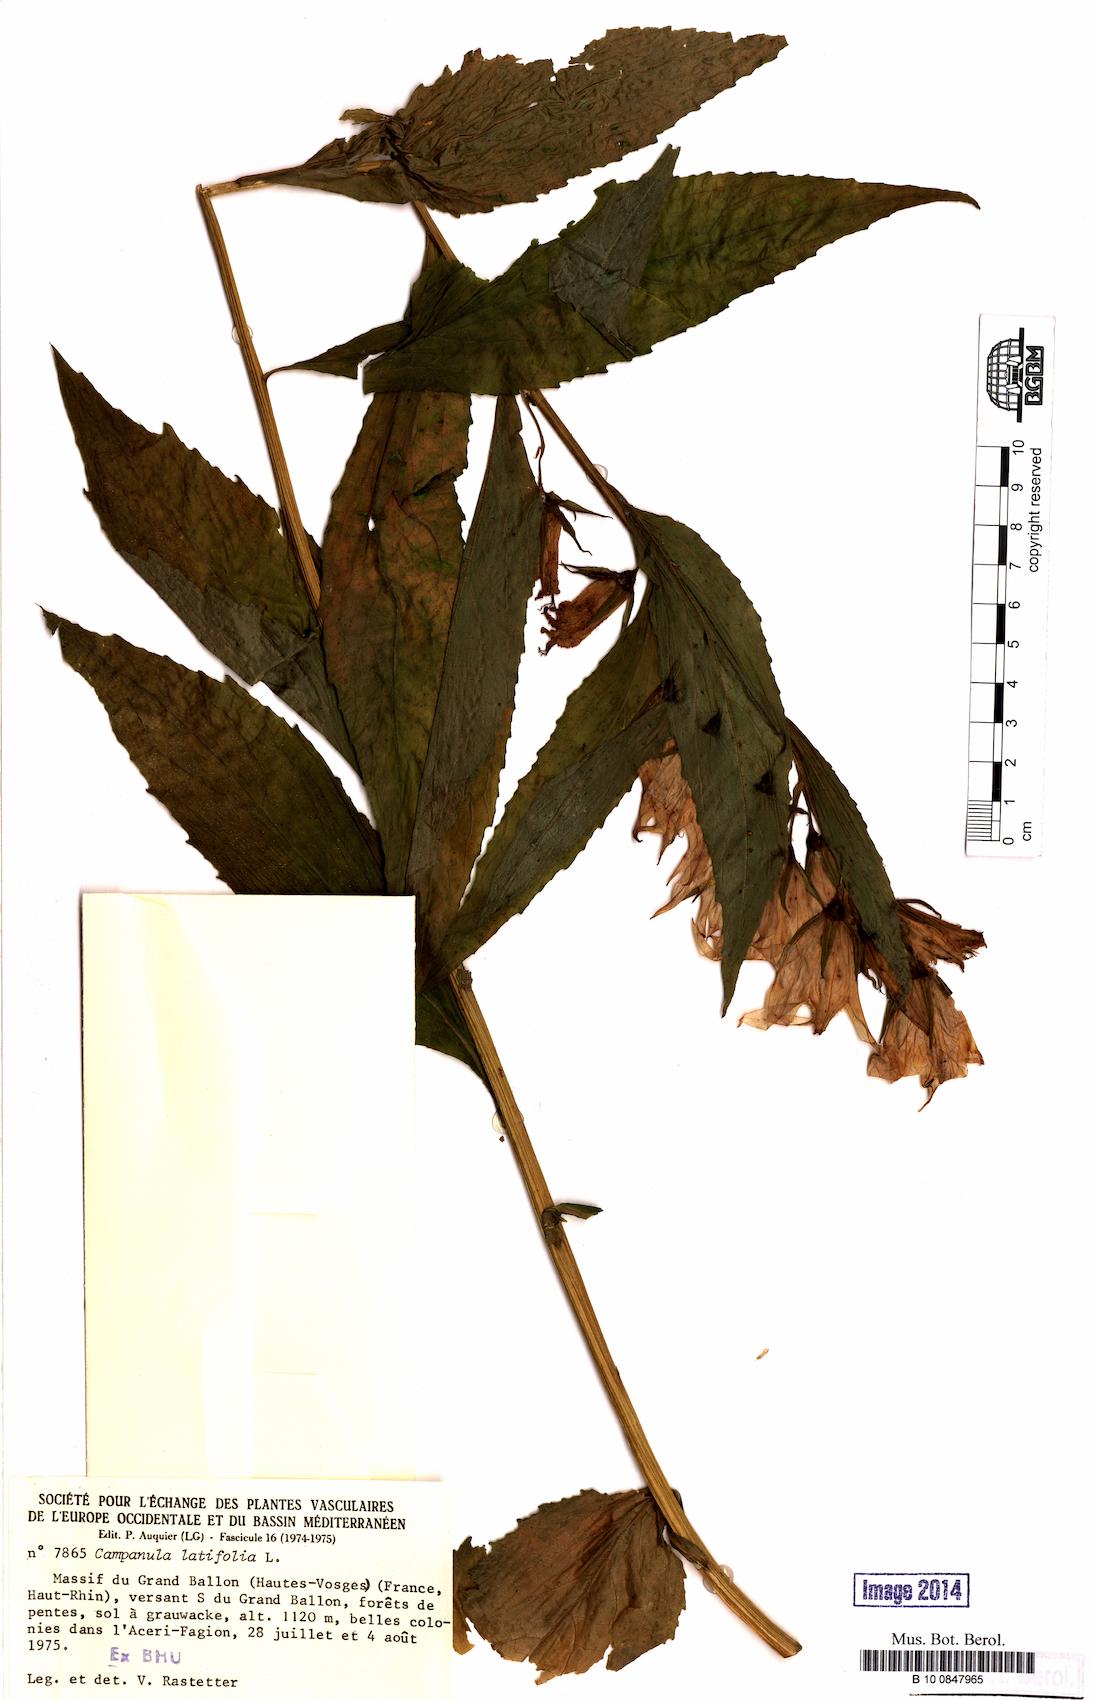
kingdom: Plantae
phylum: Tracheophyta
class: Magnoliopsida
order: Asterales
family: Campanulaceae
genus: Campanula
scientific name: Campanula latifolia
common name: Giant bellflower
